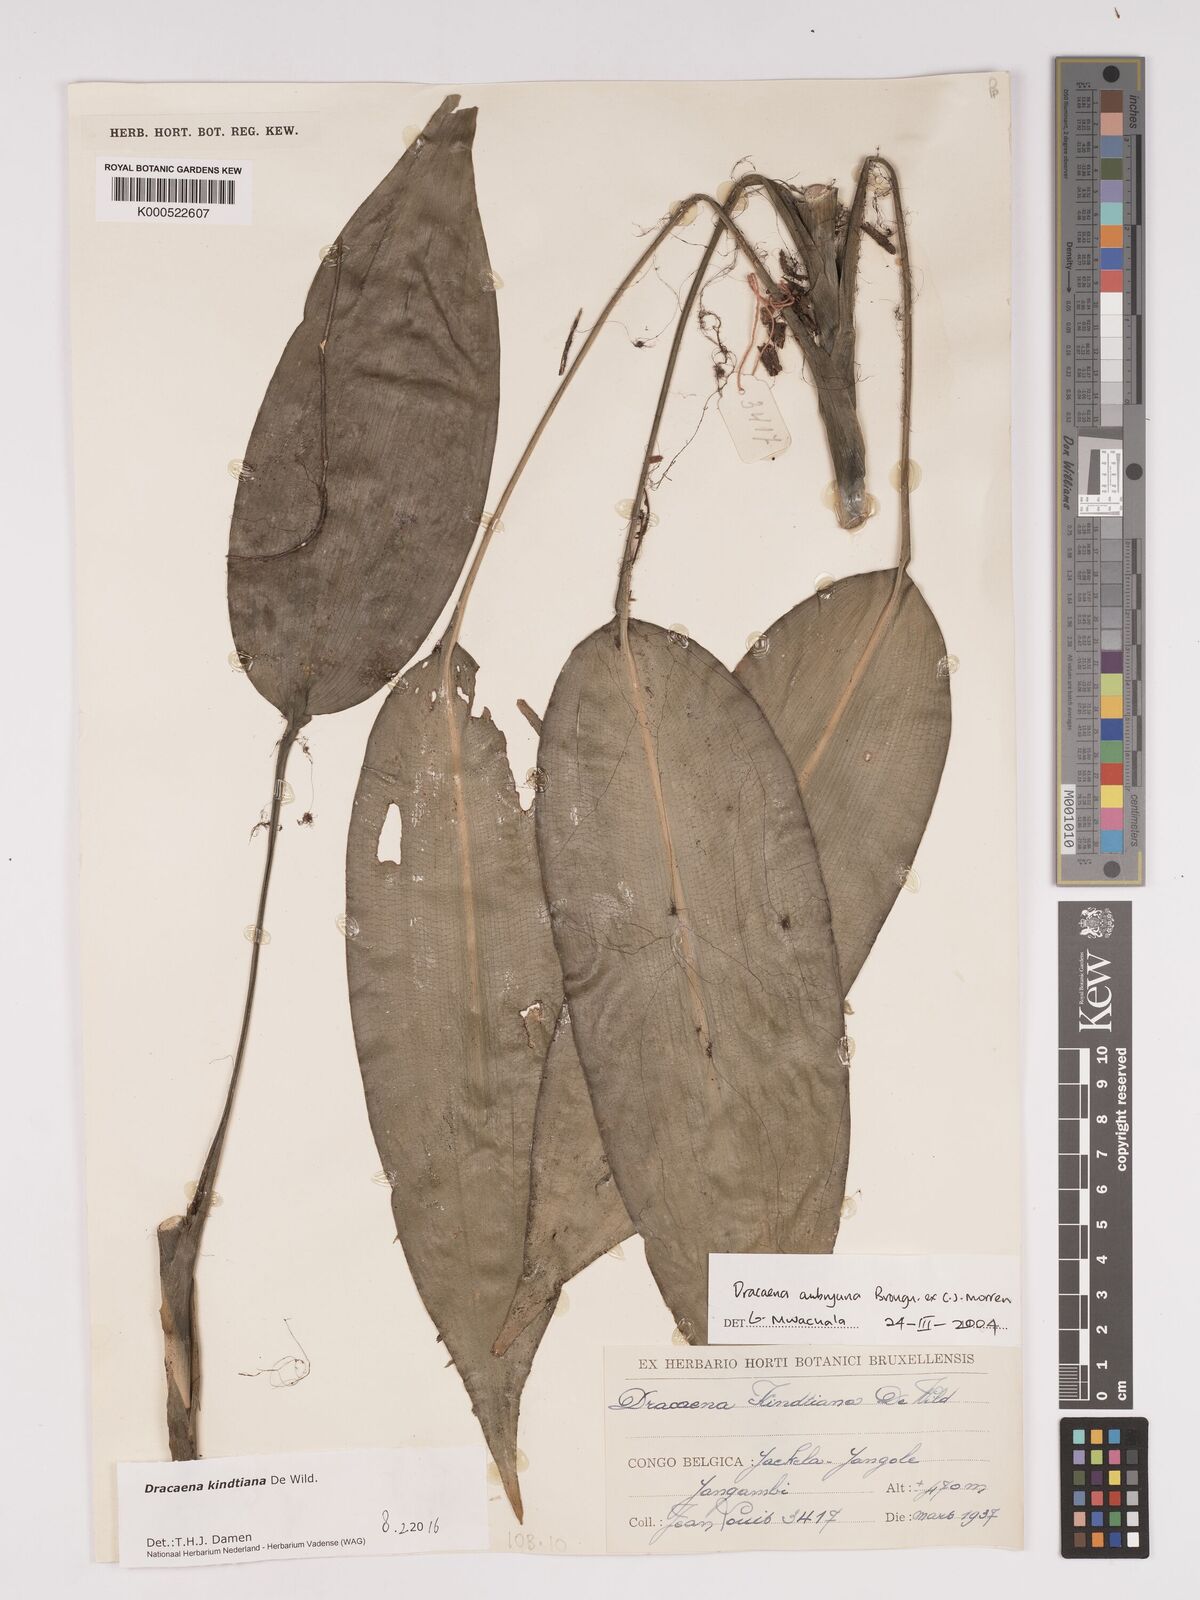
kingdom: Plantae
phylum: Tracheophyta
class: Liliopsida
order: Asparagales
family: Asparagaceae
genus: Dracaena
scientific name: Dracaena kindtiana
